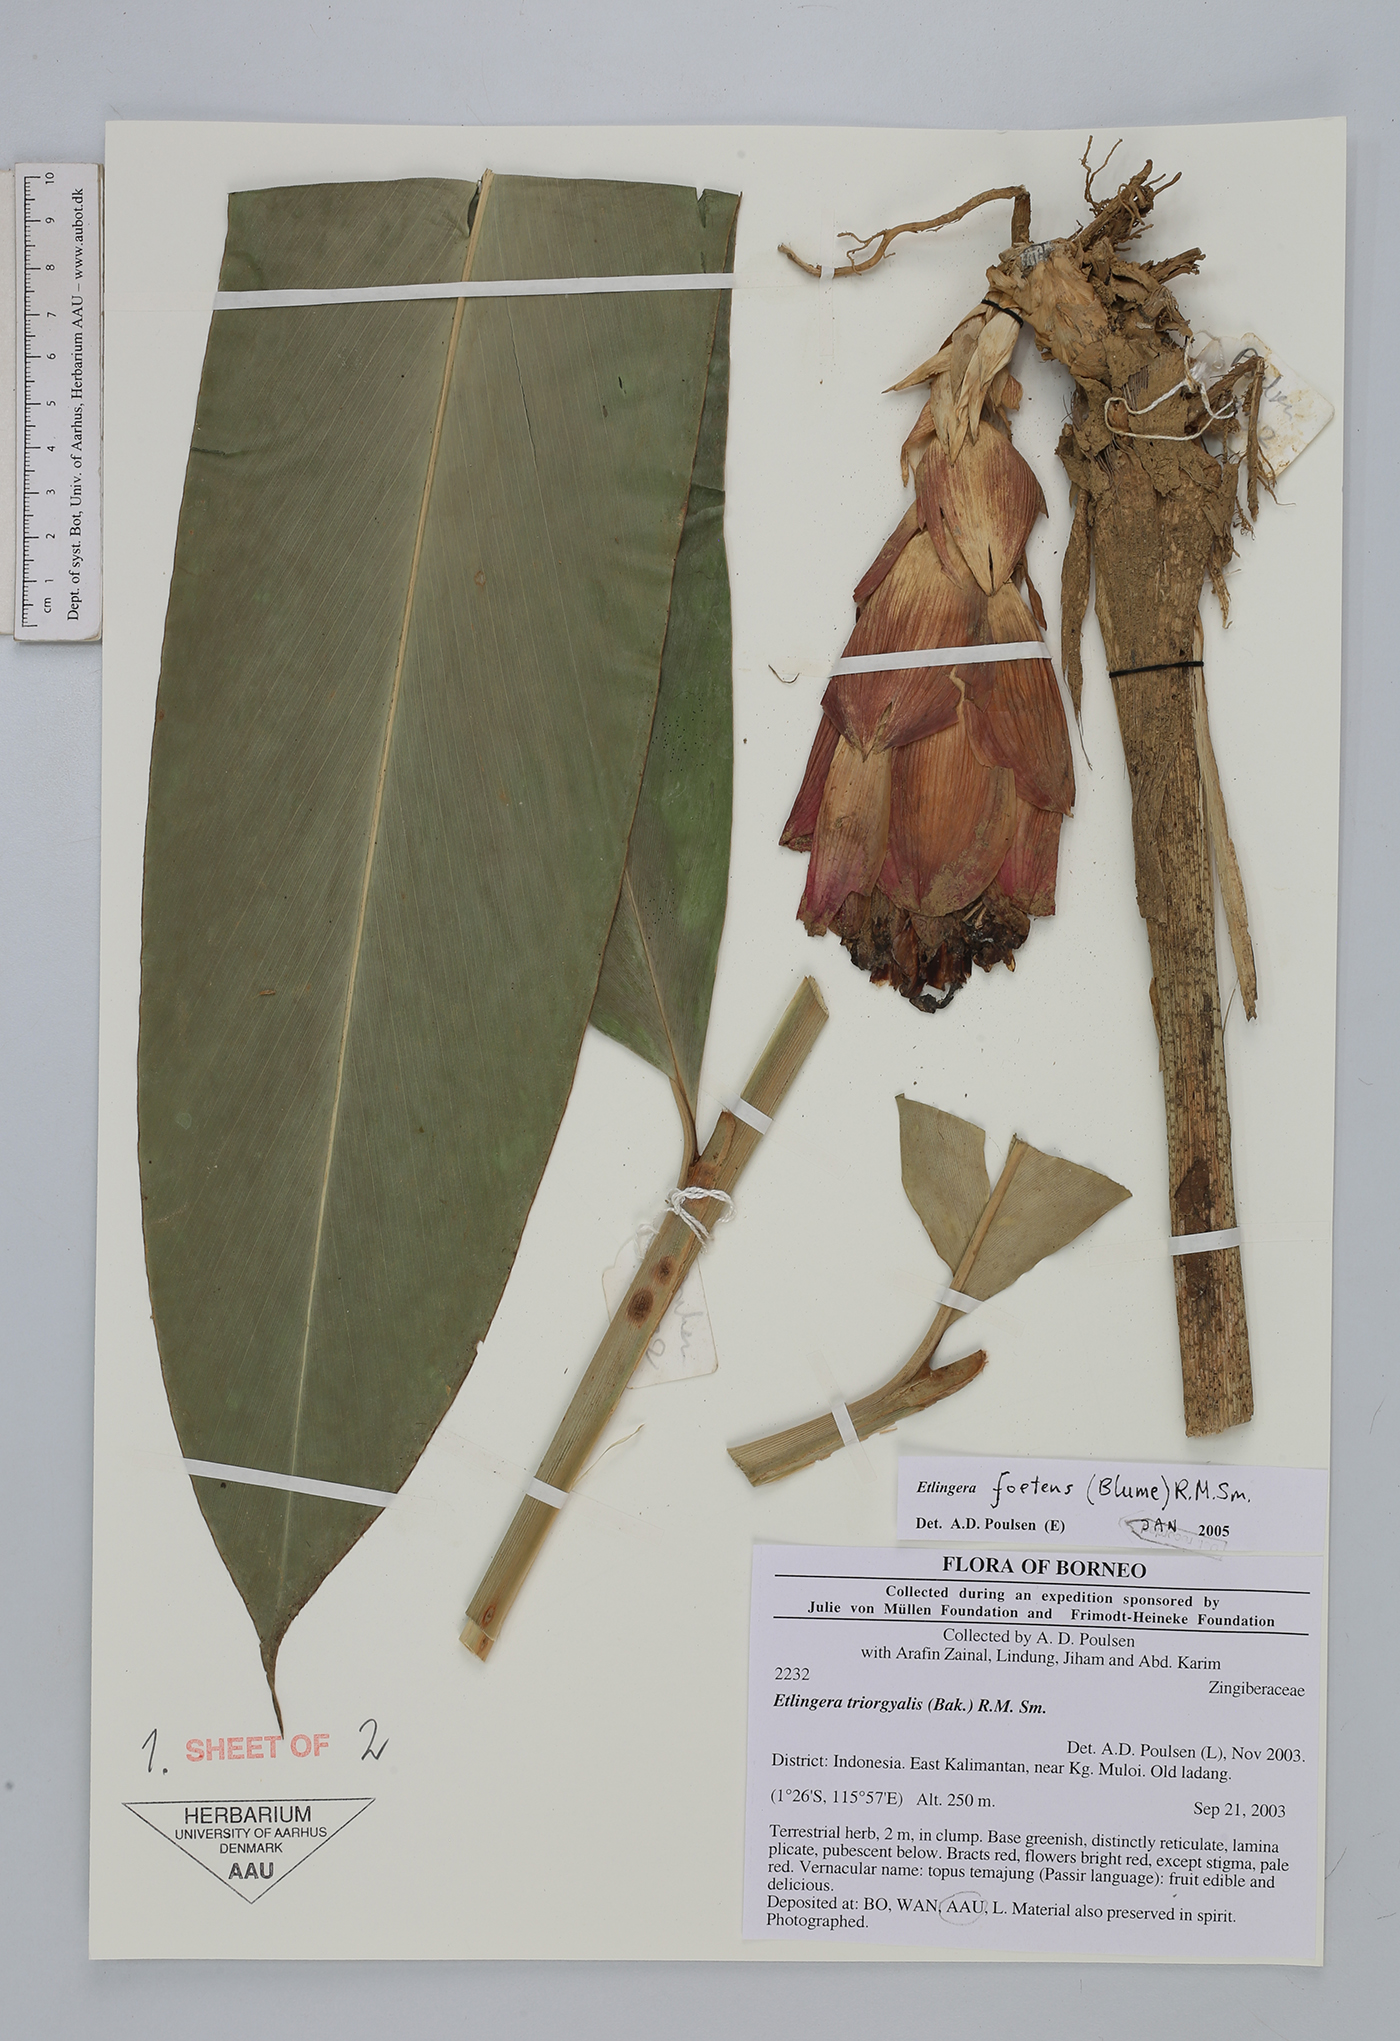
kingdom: Plantae
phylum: Tracheophyta
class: Liliopsida
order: Zingiberales
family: Zingiberaceae
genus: Etlingera
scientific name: Etlingera foetens
